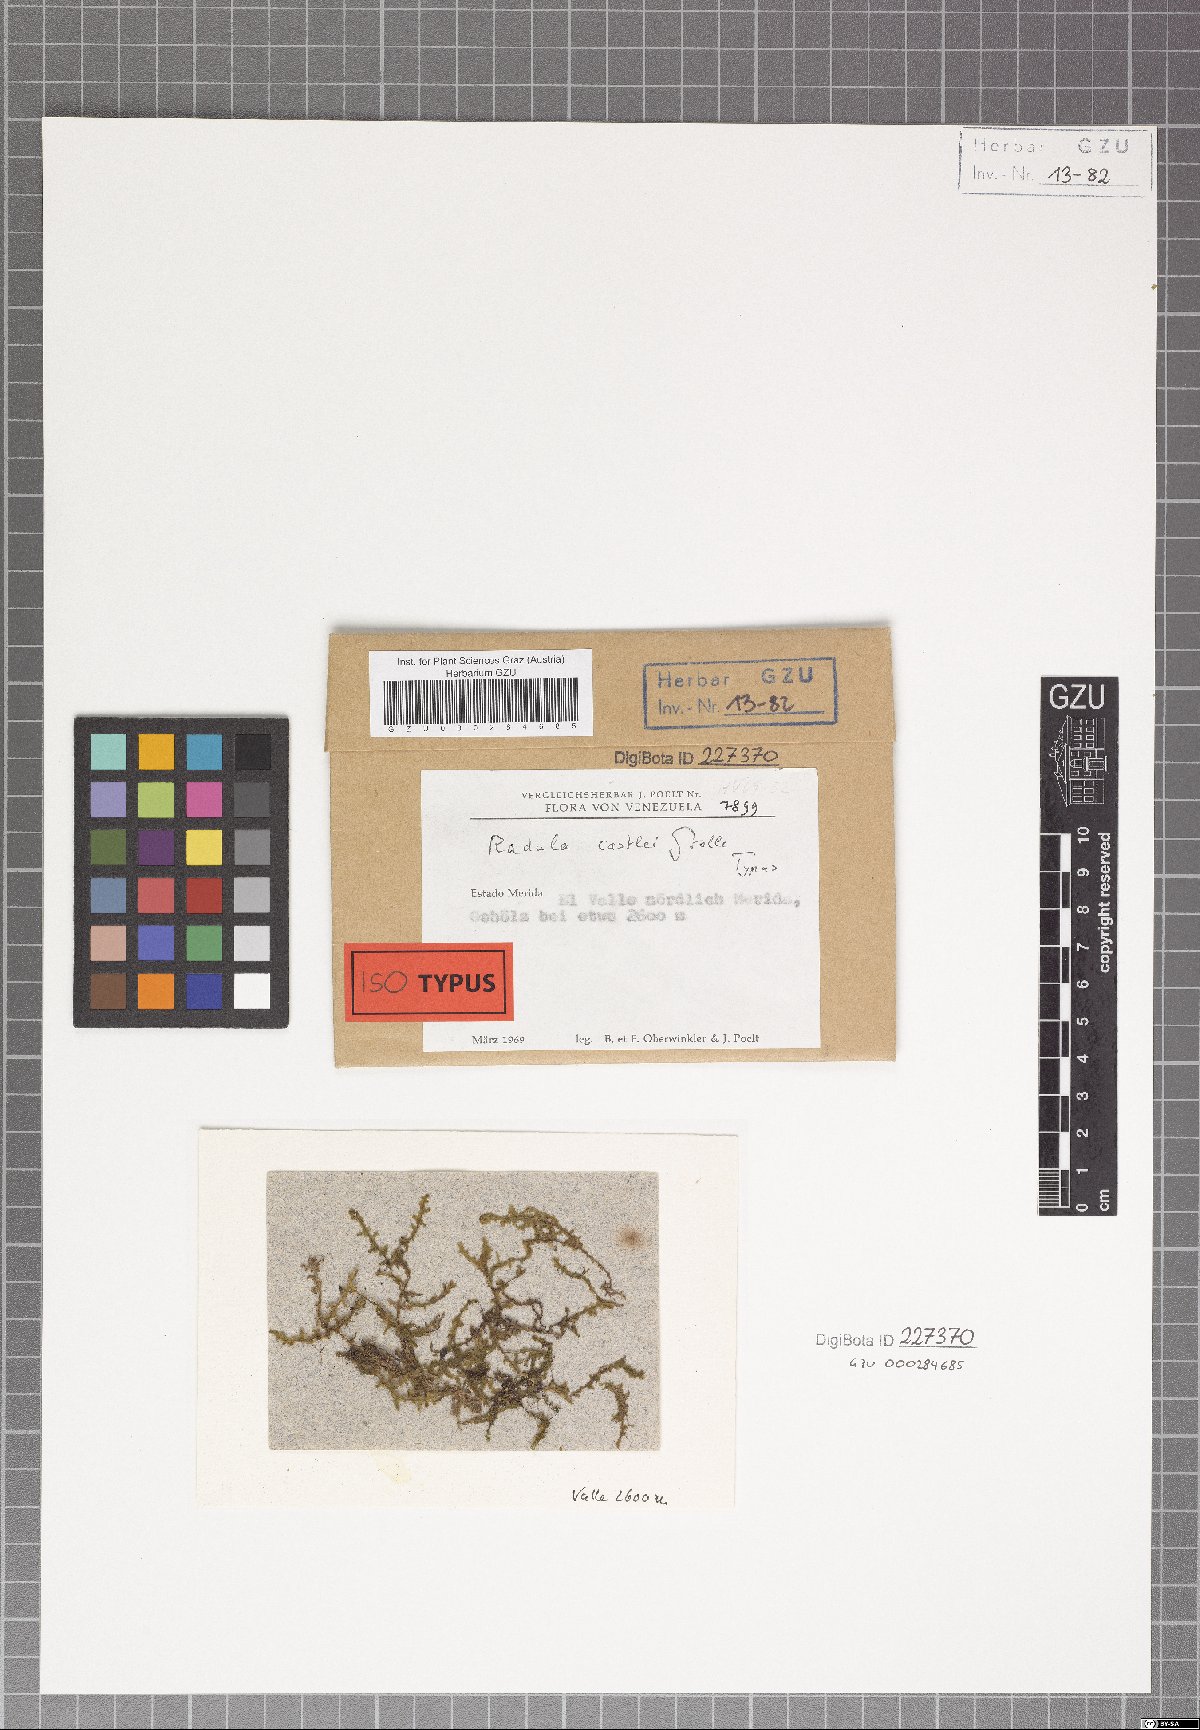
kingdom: Plantae
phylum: Marchantiophyta
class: Jungermanniopsida
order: Porellales
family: Radulaceae
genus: Radula
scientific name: Radula castlei
